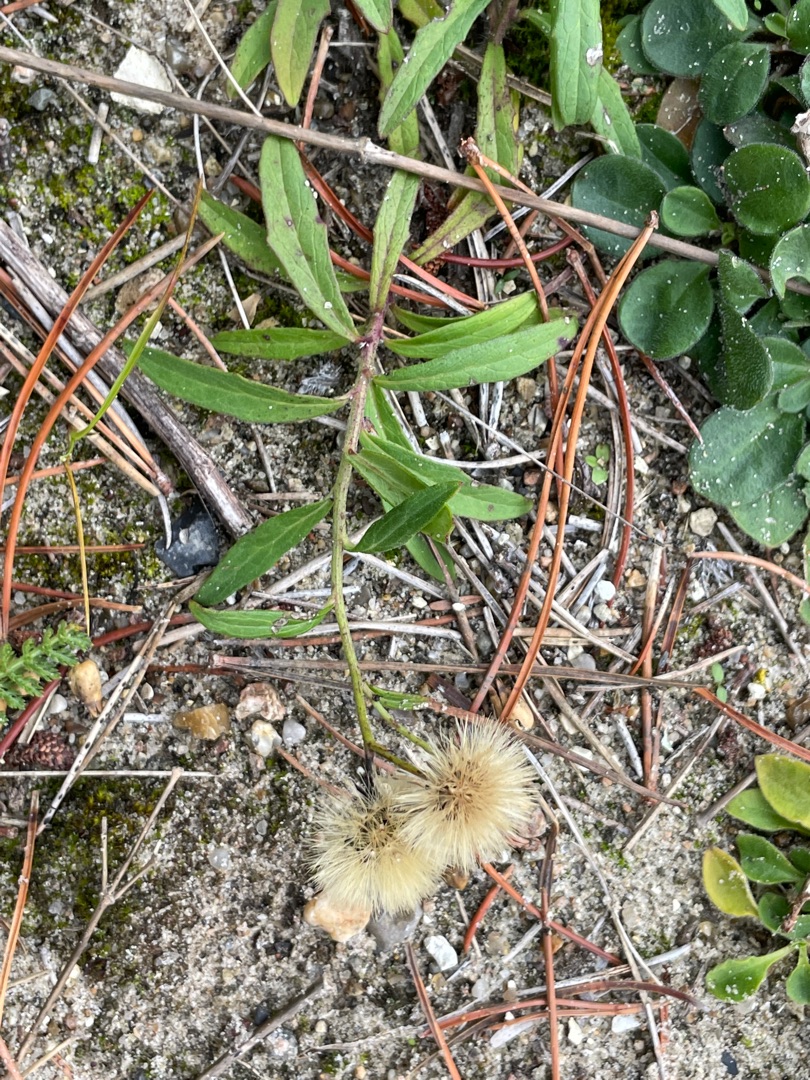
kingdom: Plantae
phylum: Tracheophyta
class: Magnoliopsida
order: Asterales
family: Asteraceae
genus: Hieracium
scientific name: Hieracium umbellatum
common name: Smalbladet høgeurt
